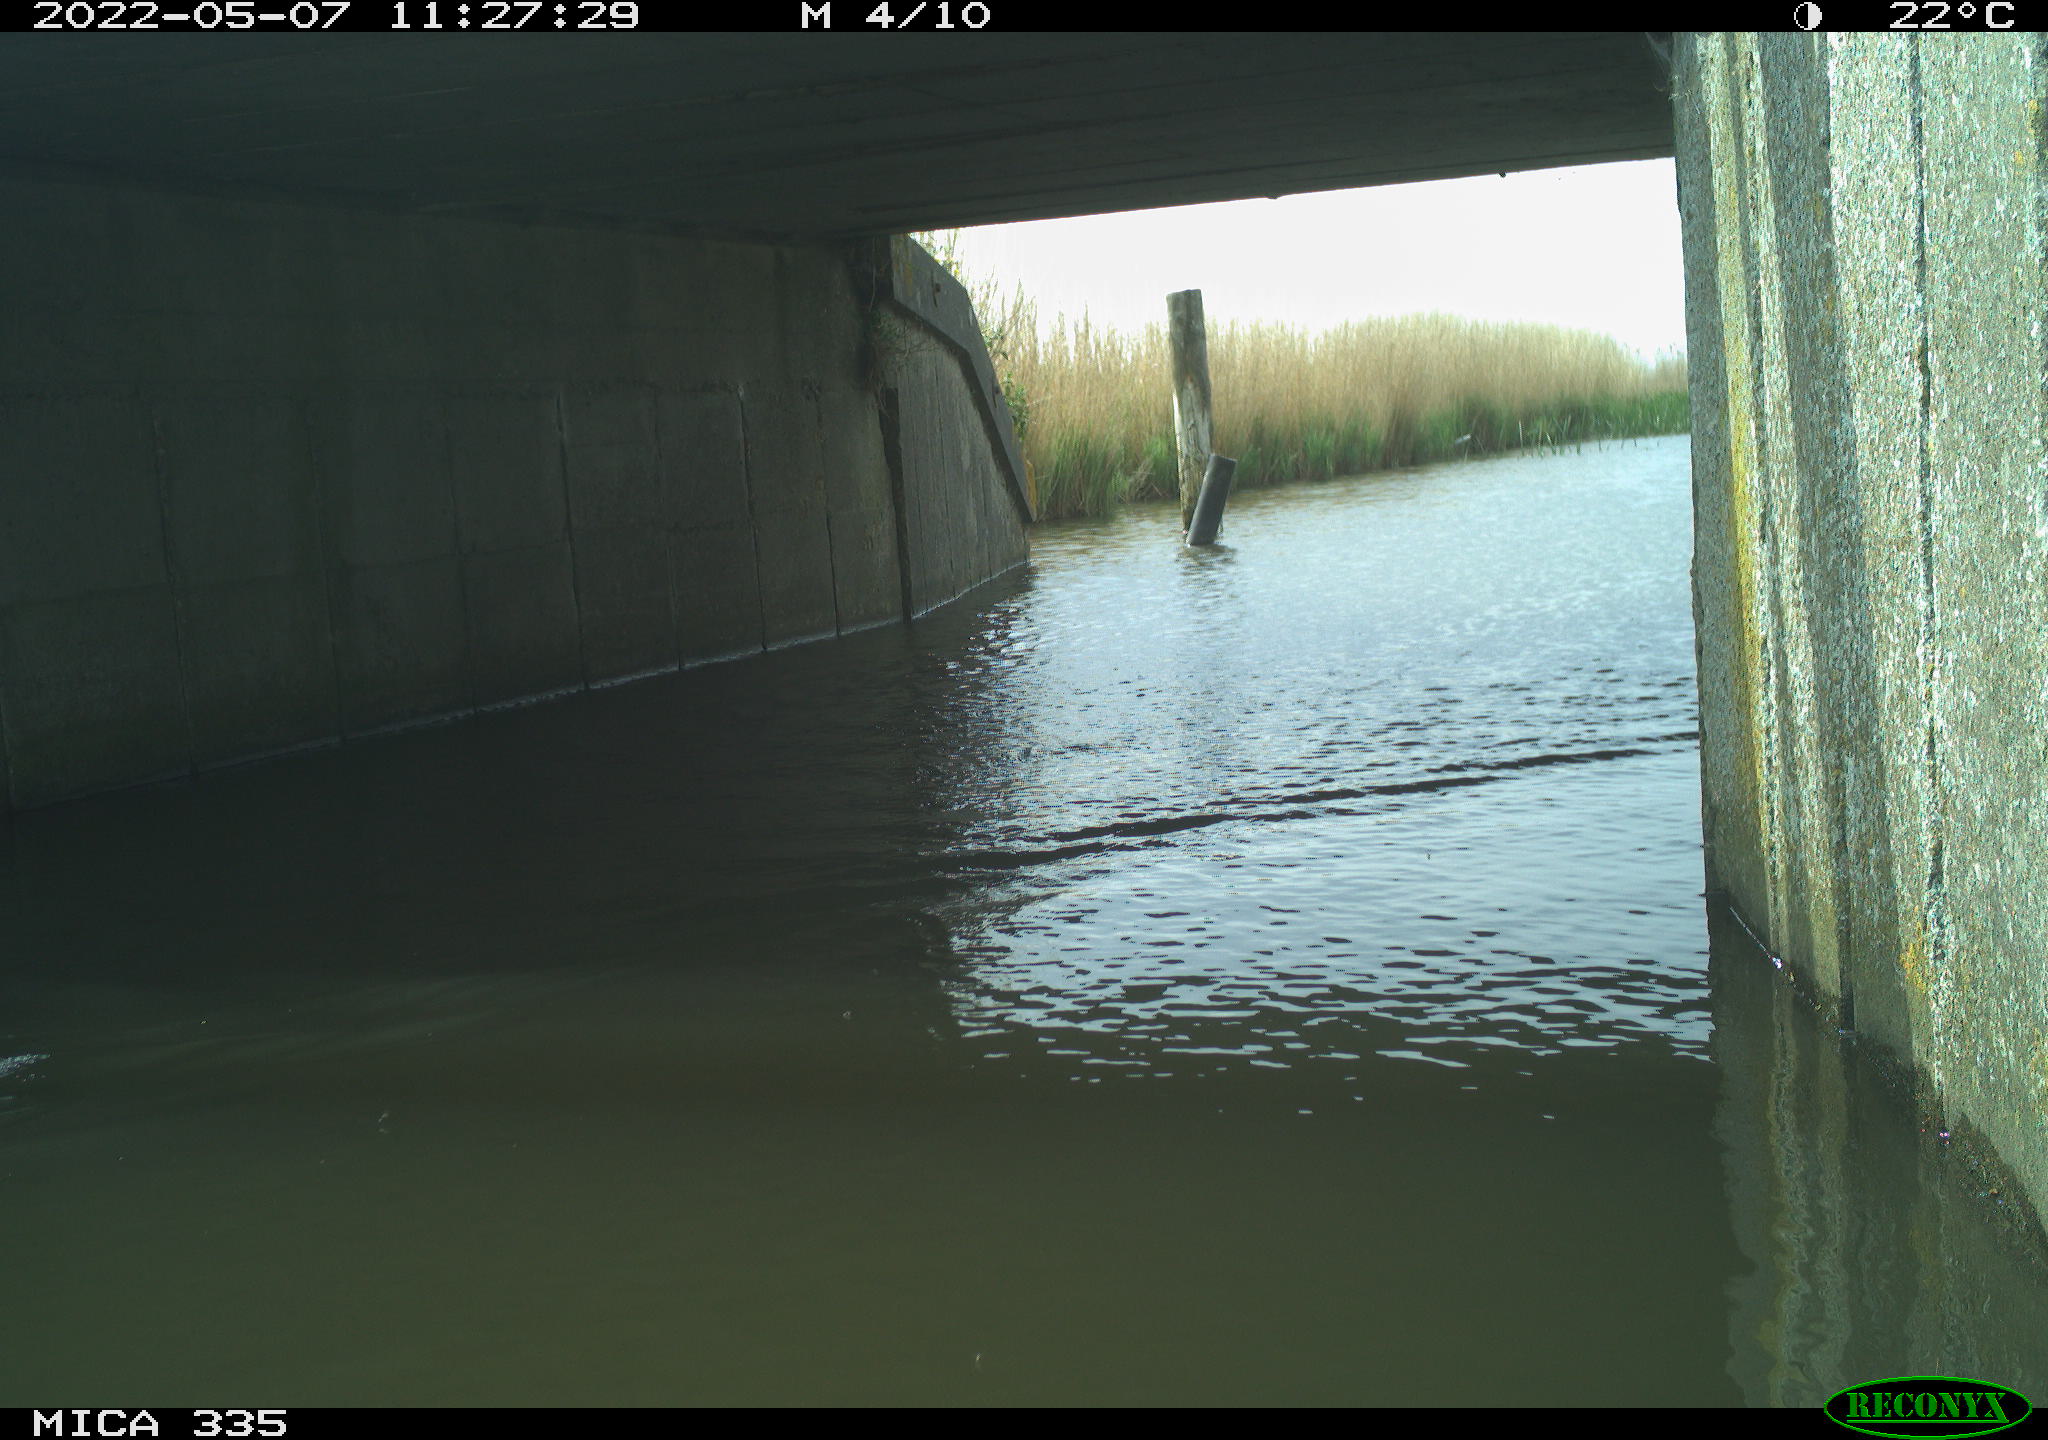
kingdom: Animalia
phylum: Chordata
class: Aves
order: Anseriformes
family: Anatidae
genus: Anas
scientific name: Anas platyrhynchos
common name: Mallard
